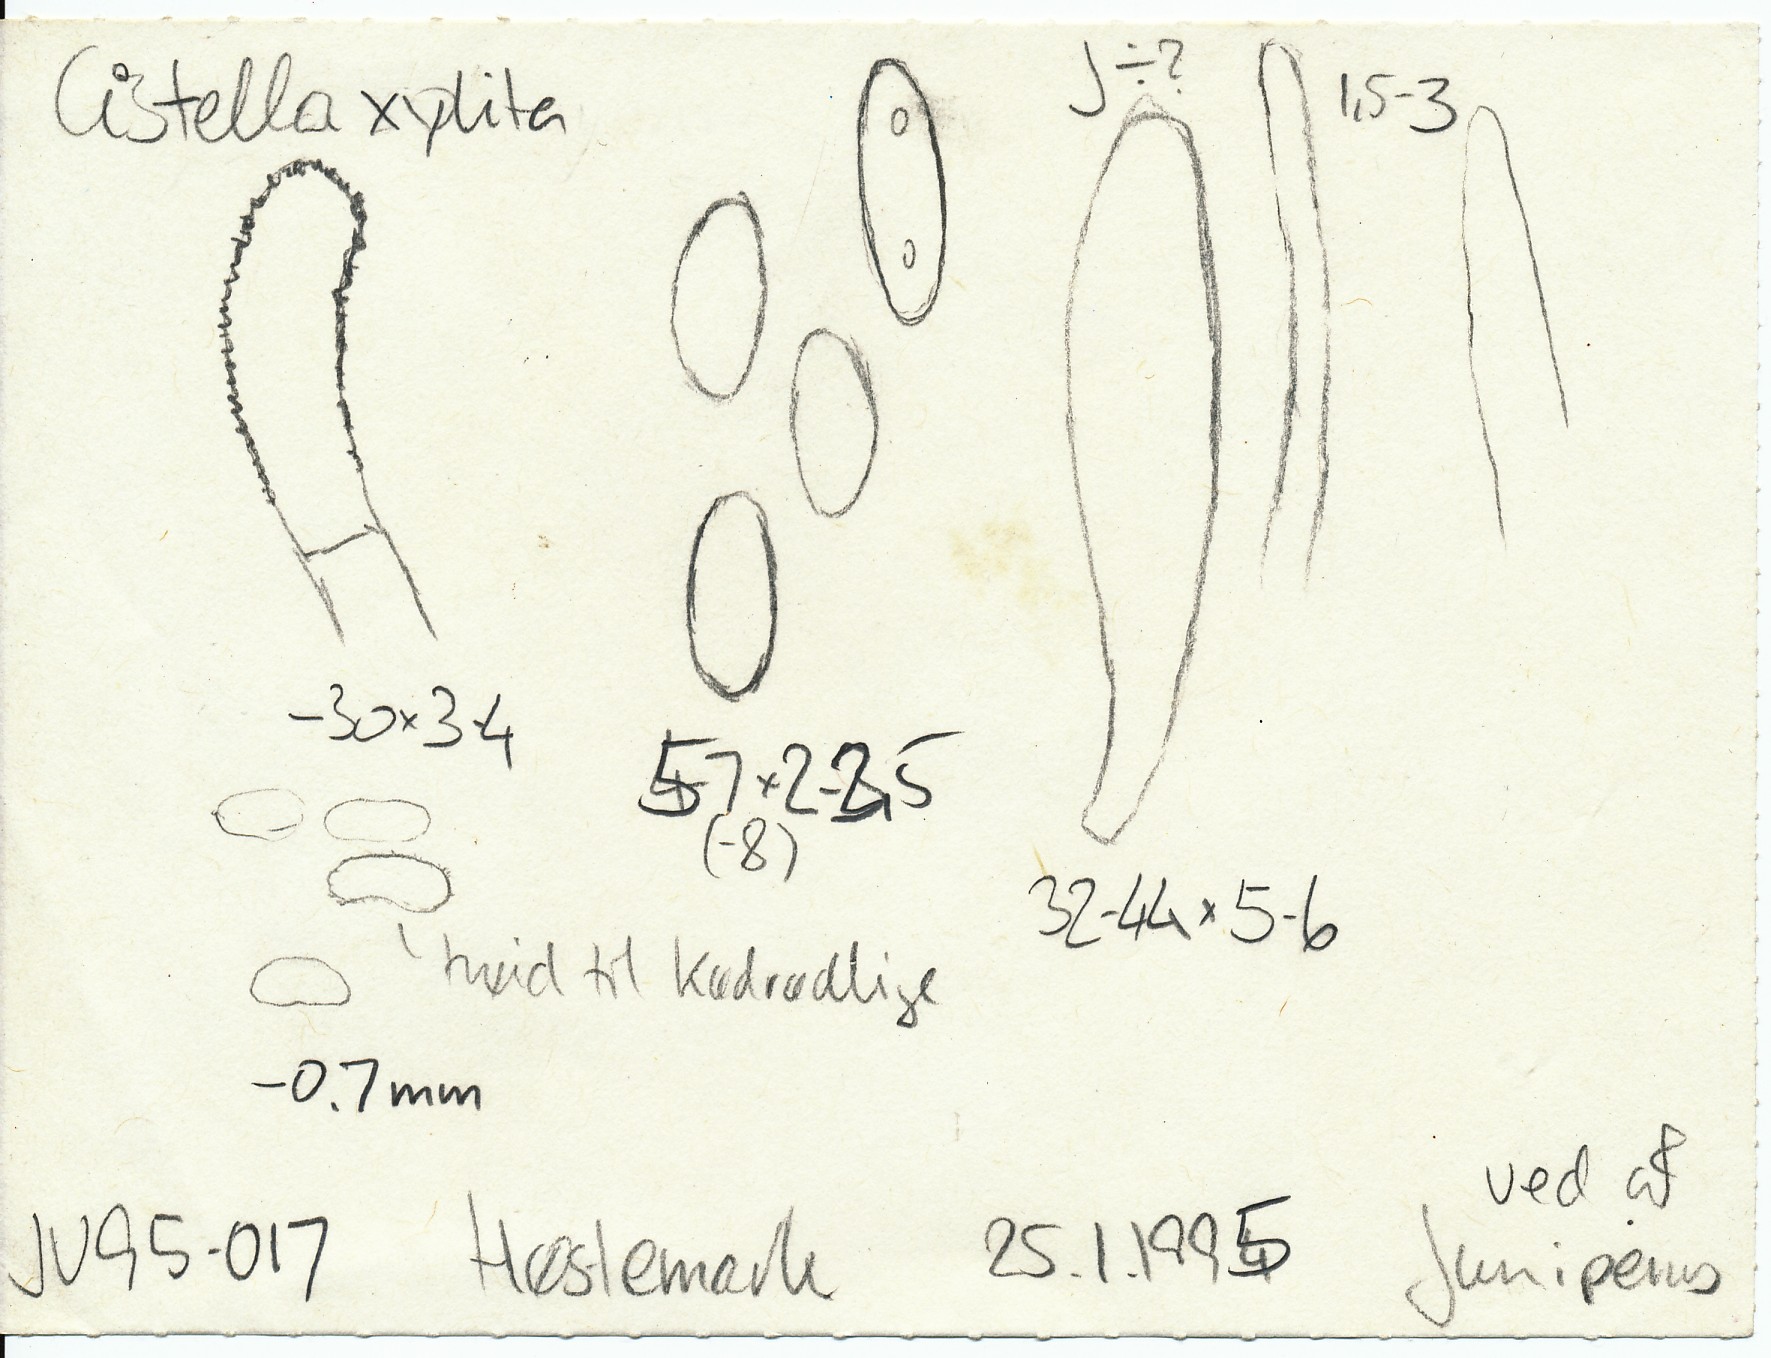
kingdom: Fungi
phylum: Ascomycota
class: Leotiomycetes
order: Helotiales
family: Hyaloscyphaceae
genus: Clavidisculum
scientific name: Clavidisculum karstenii
